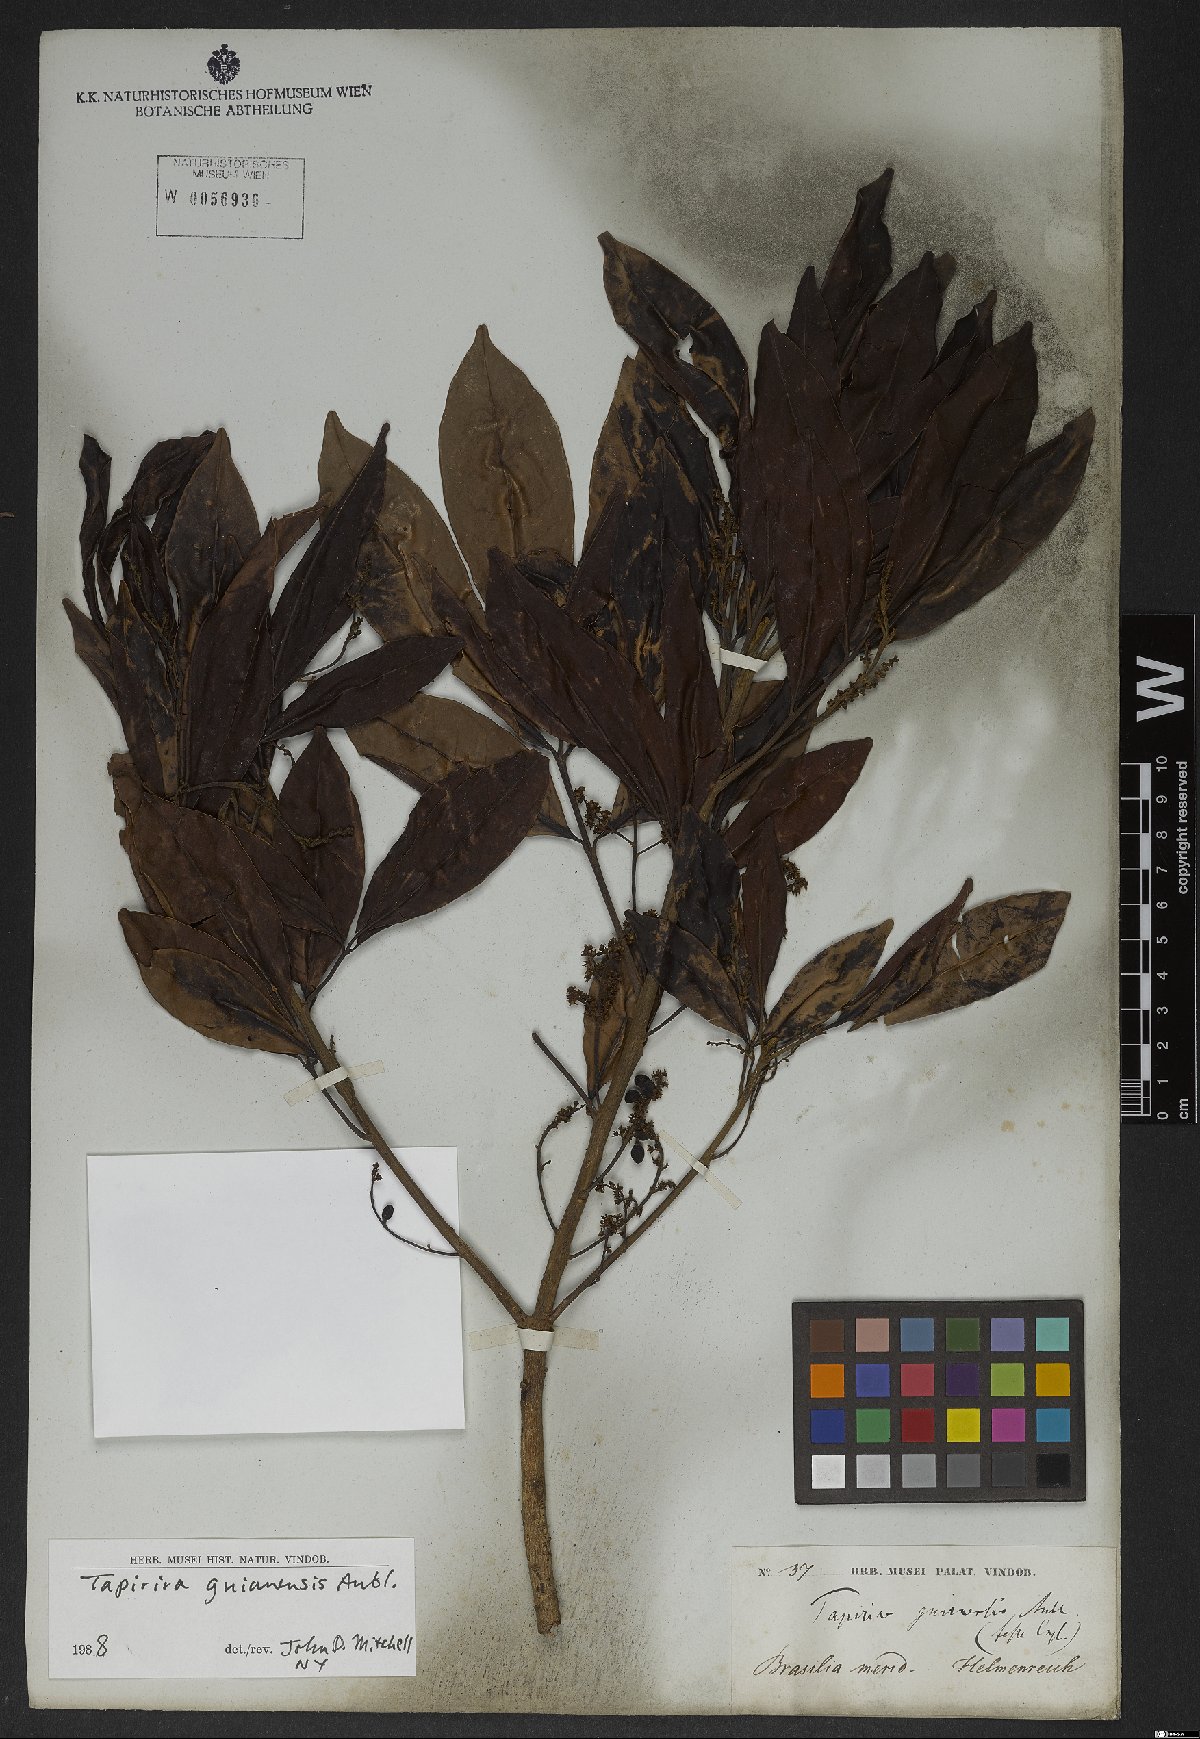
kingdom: Plantae
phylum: Tracheophyta
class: Magnoliopsida
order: Sapindales
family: Anacardiaceae
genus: Tapirira
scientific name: Tapirira guianensis
